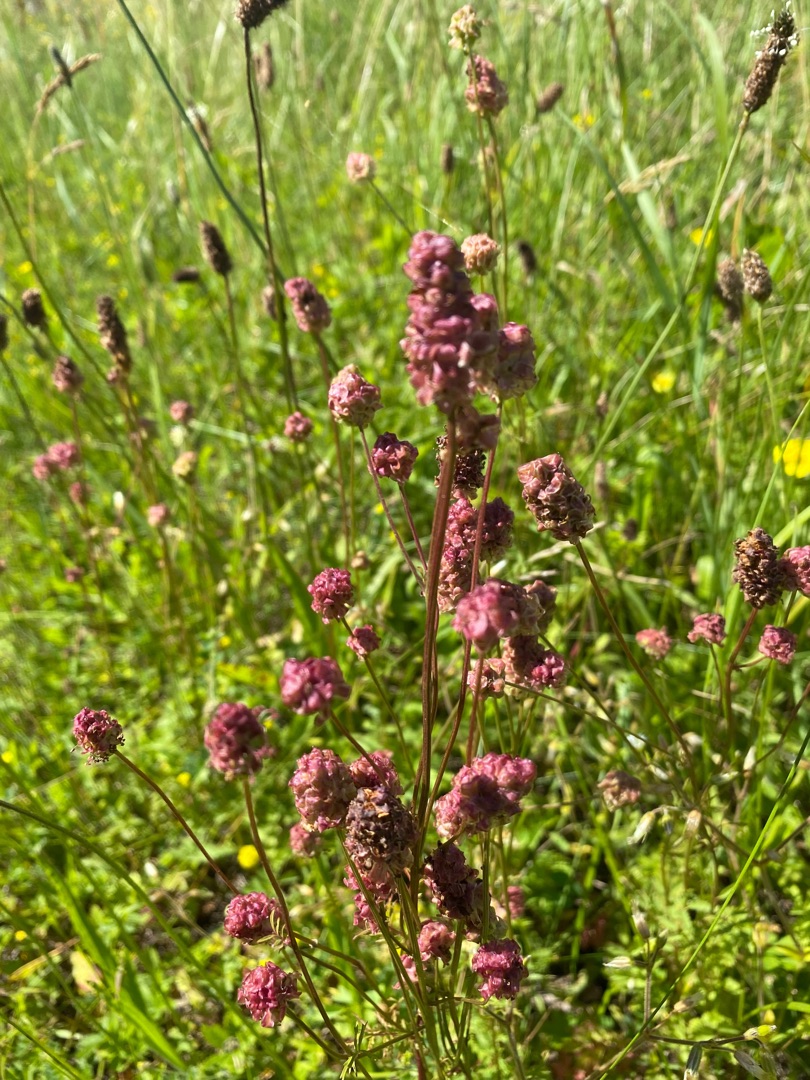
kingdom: Plantae
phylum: Tracheophyta
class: Magnoliopsida
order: Rosales
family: Rosaceae
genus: Poterium
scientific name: Poterium sanguisorba
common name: Bibernelle
